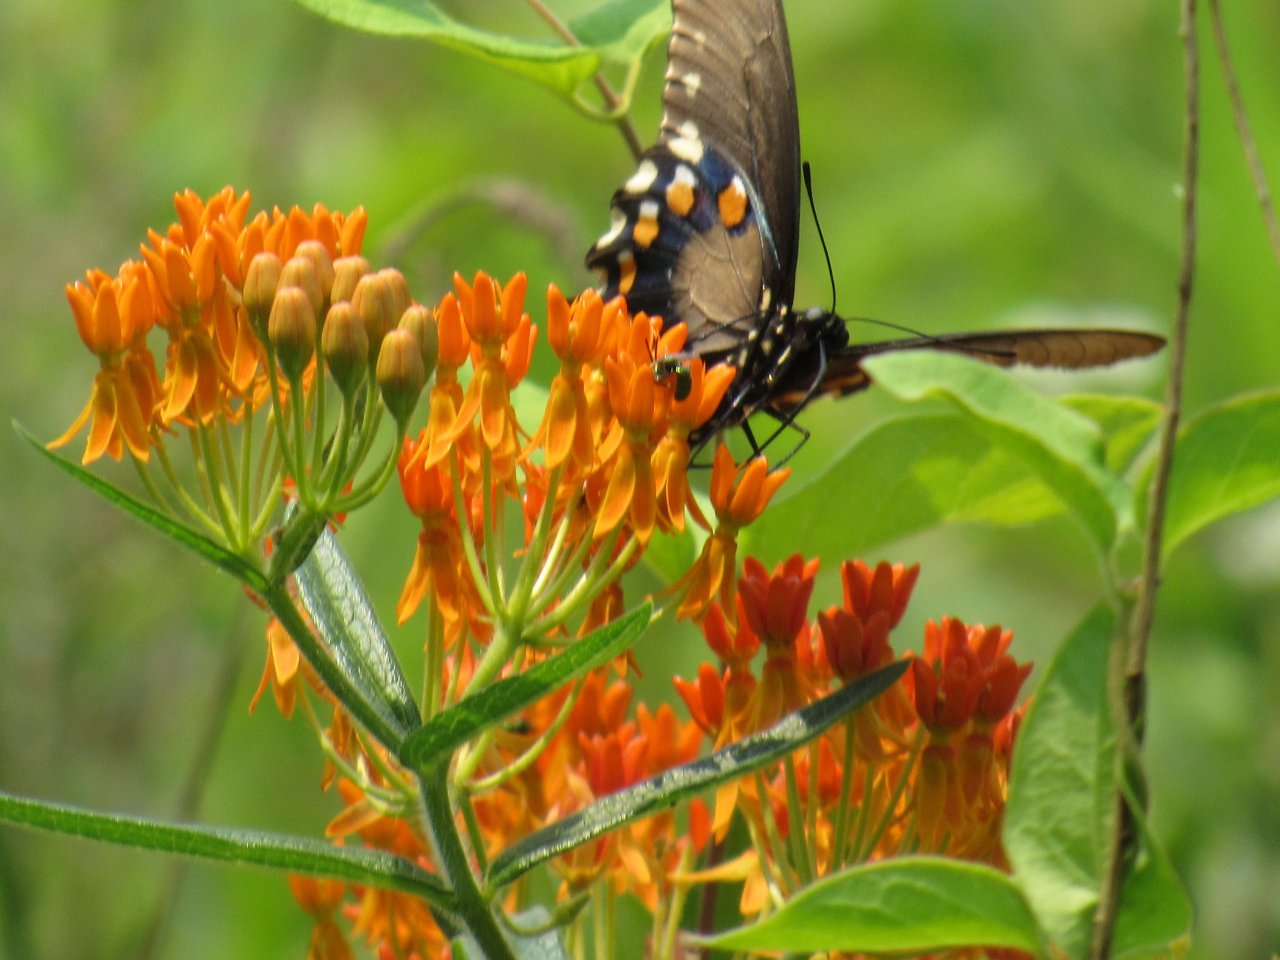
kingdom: Animalia
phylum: Arthropoda
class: Insecta
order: Lepidoptera
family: Papilionidae
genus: Battus
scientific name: Battus philenor
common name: Pipevine Swallowtail
